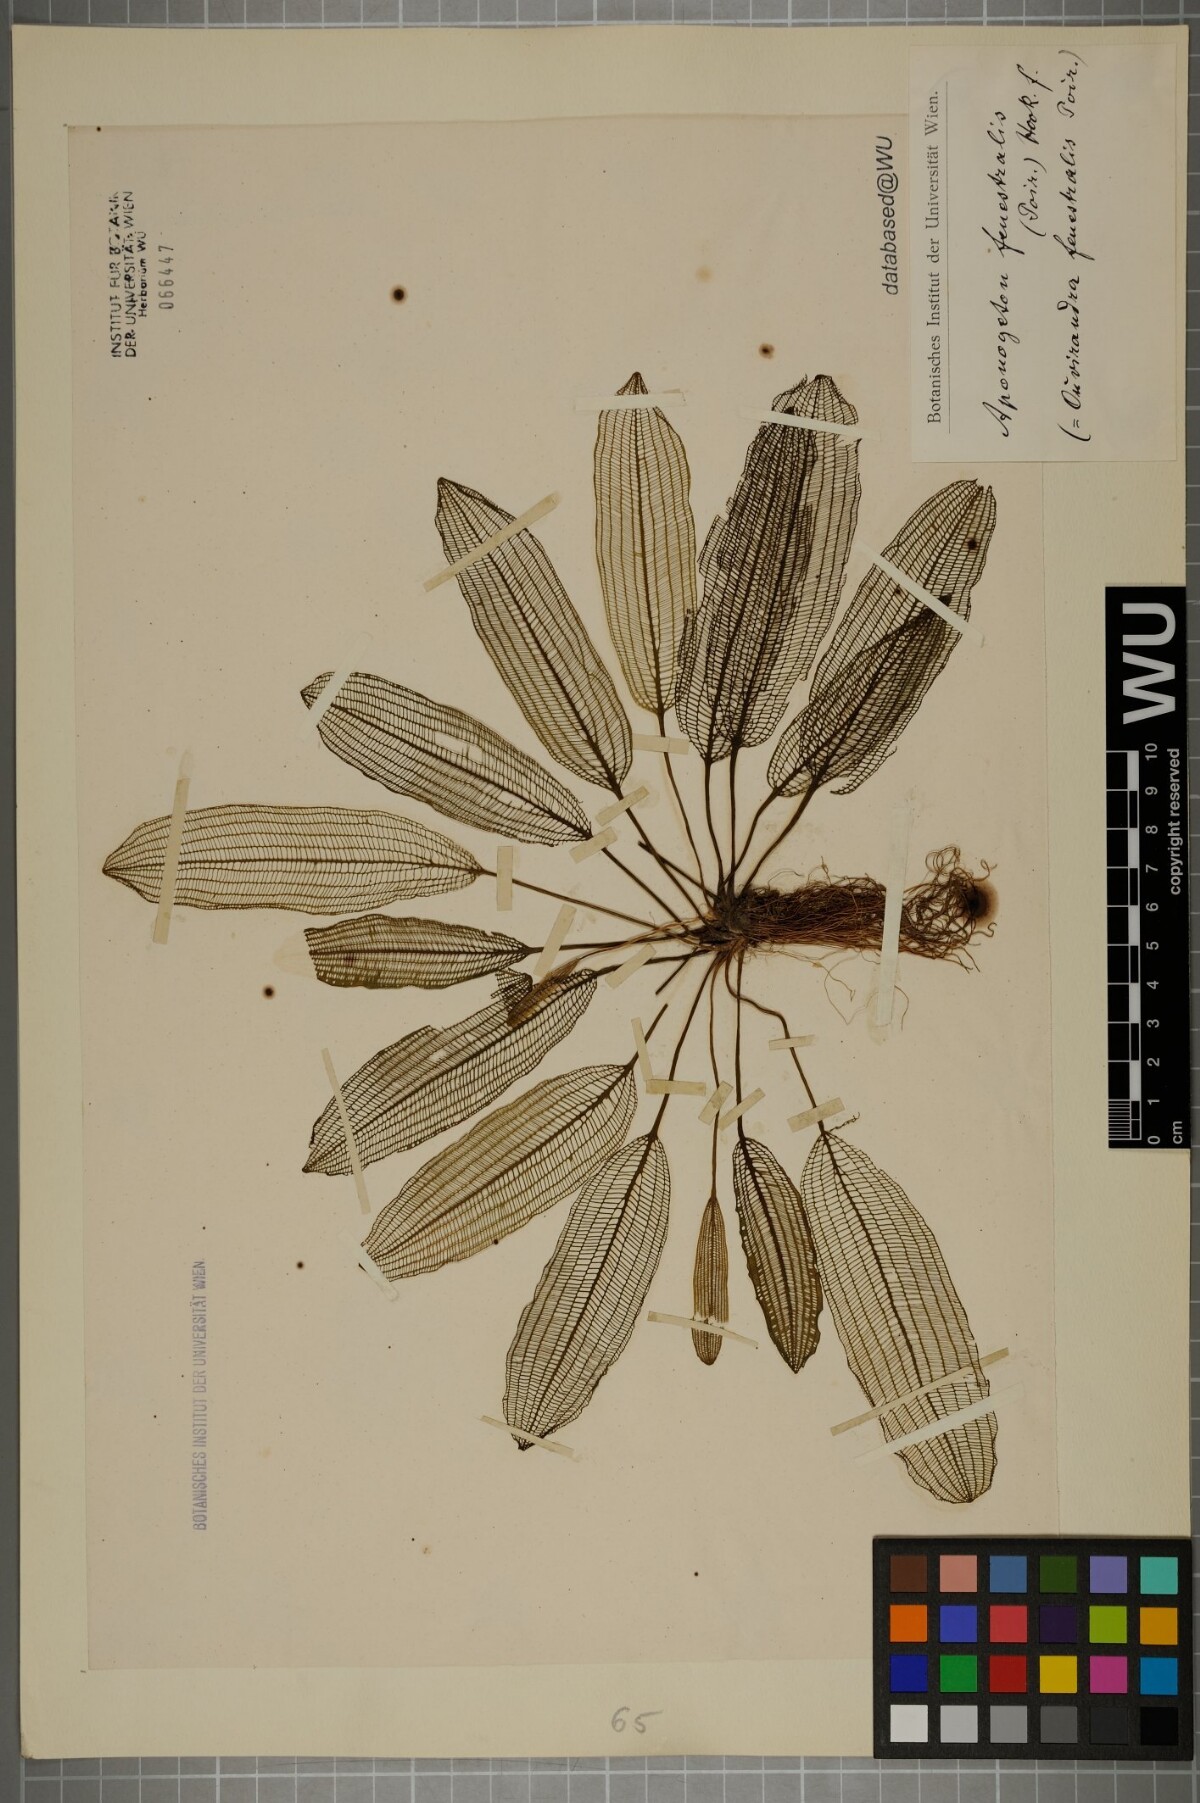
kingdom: Plantae
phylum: Tracheophyta
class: Liliopsida
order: Alismatales
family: Aponogetonaceae
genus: Aponogeton
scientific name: Aponogeton madagascariensis
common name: Laceleaf
